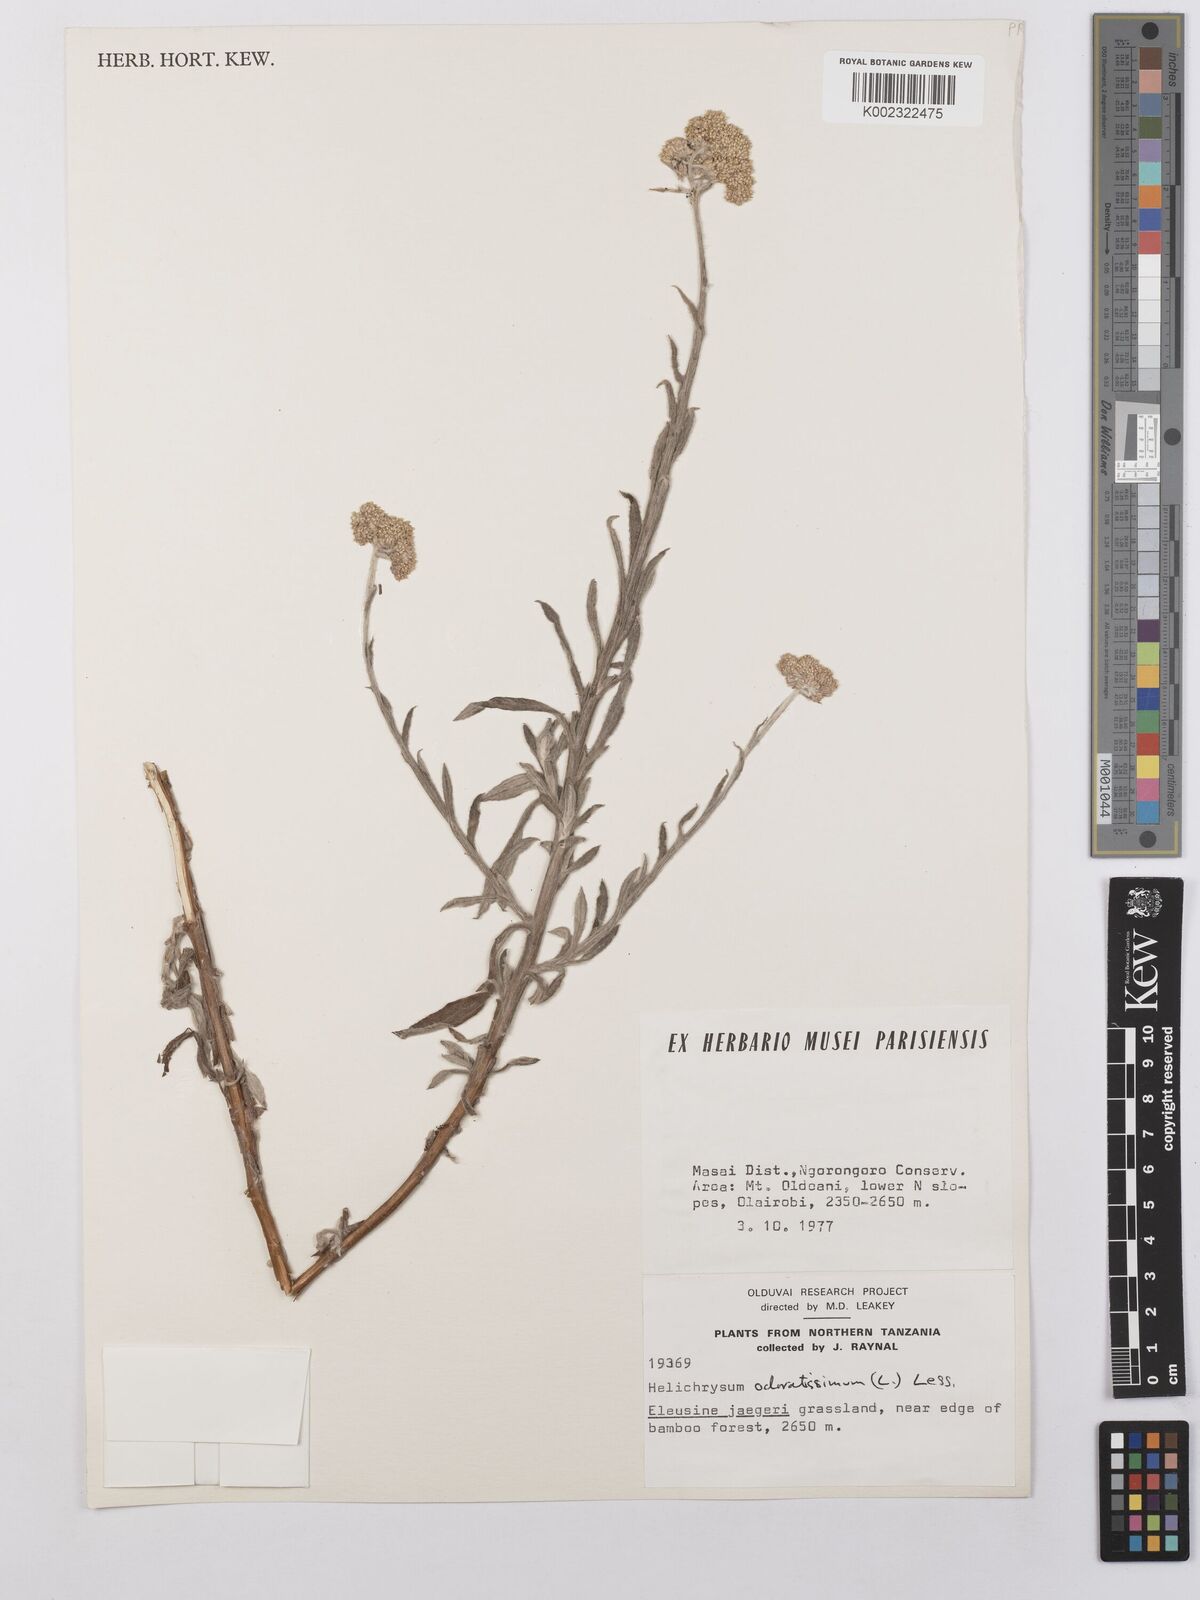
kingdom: Plantae
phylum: Tracheophyta
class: Magnoliopsida
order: Asterales
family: Asteraceae
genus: Helichrysum
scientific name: Helichrysum stenopterum
